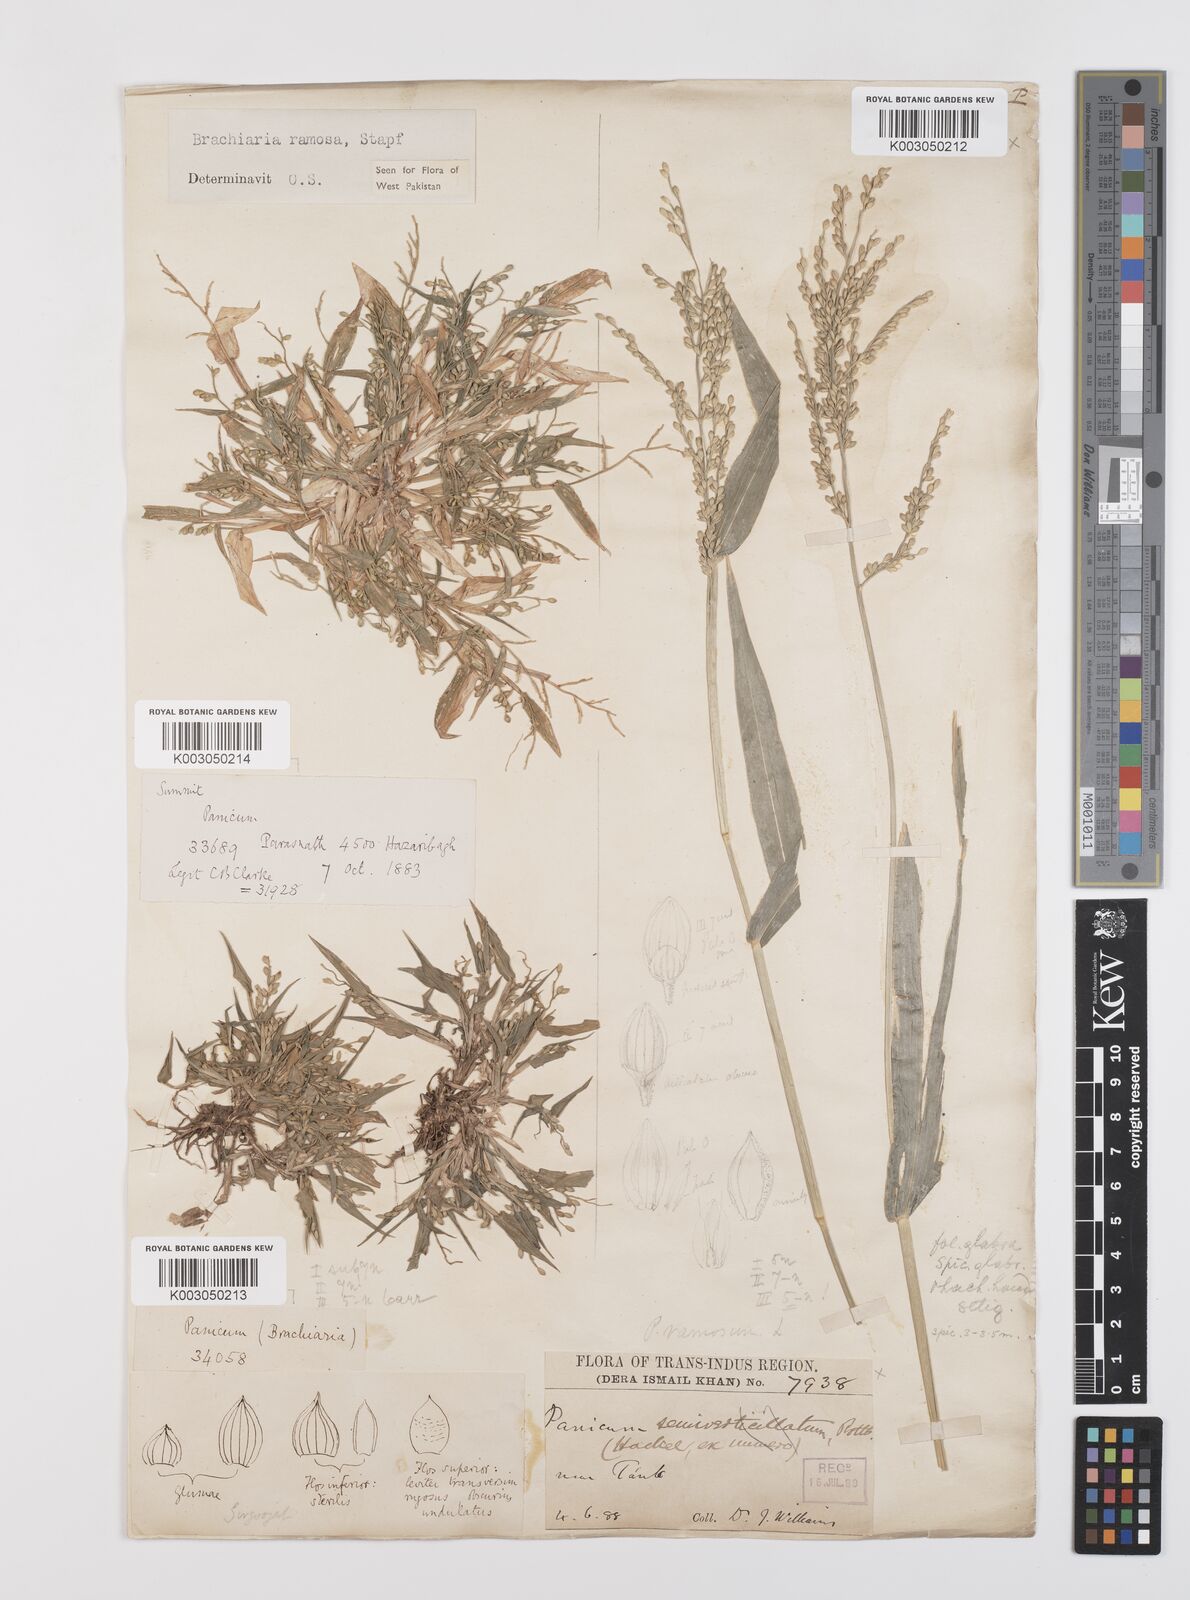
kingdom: Plantae
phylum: Tracheophyta
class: Liliopsida
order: Poales
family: Poaceae
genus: Urochloa
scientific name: Urochloa ramosa
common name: Browntop millet
